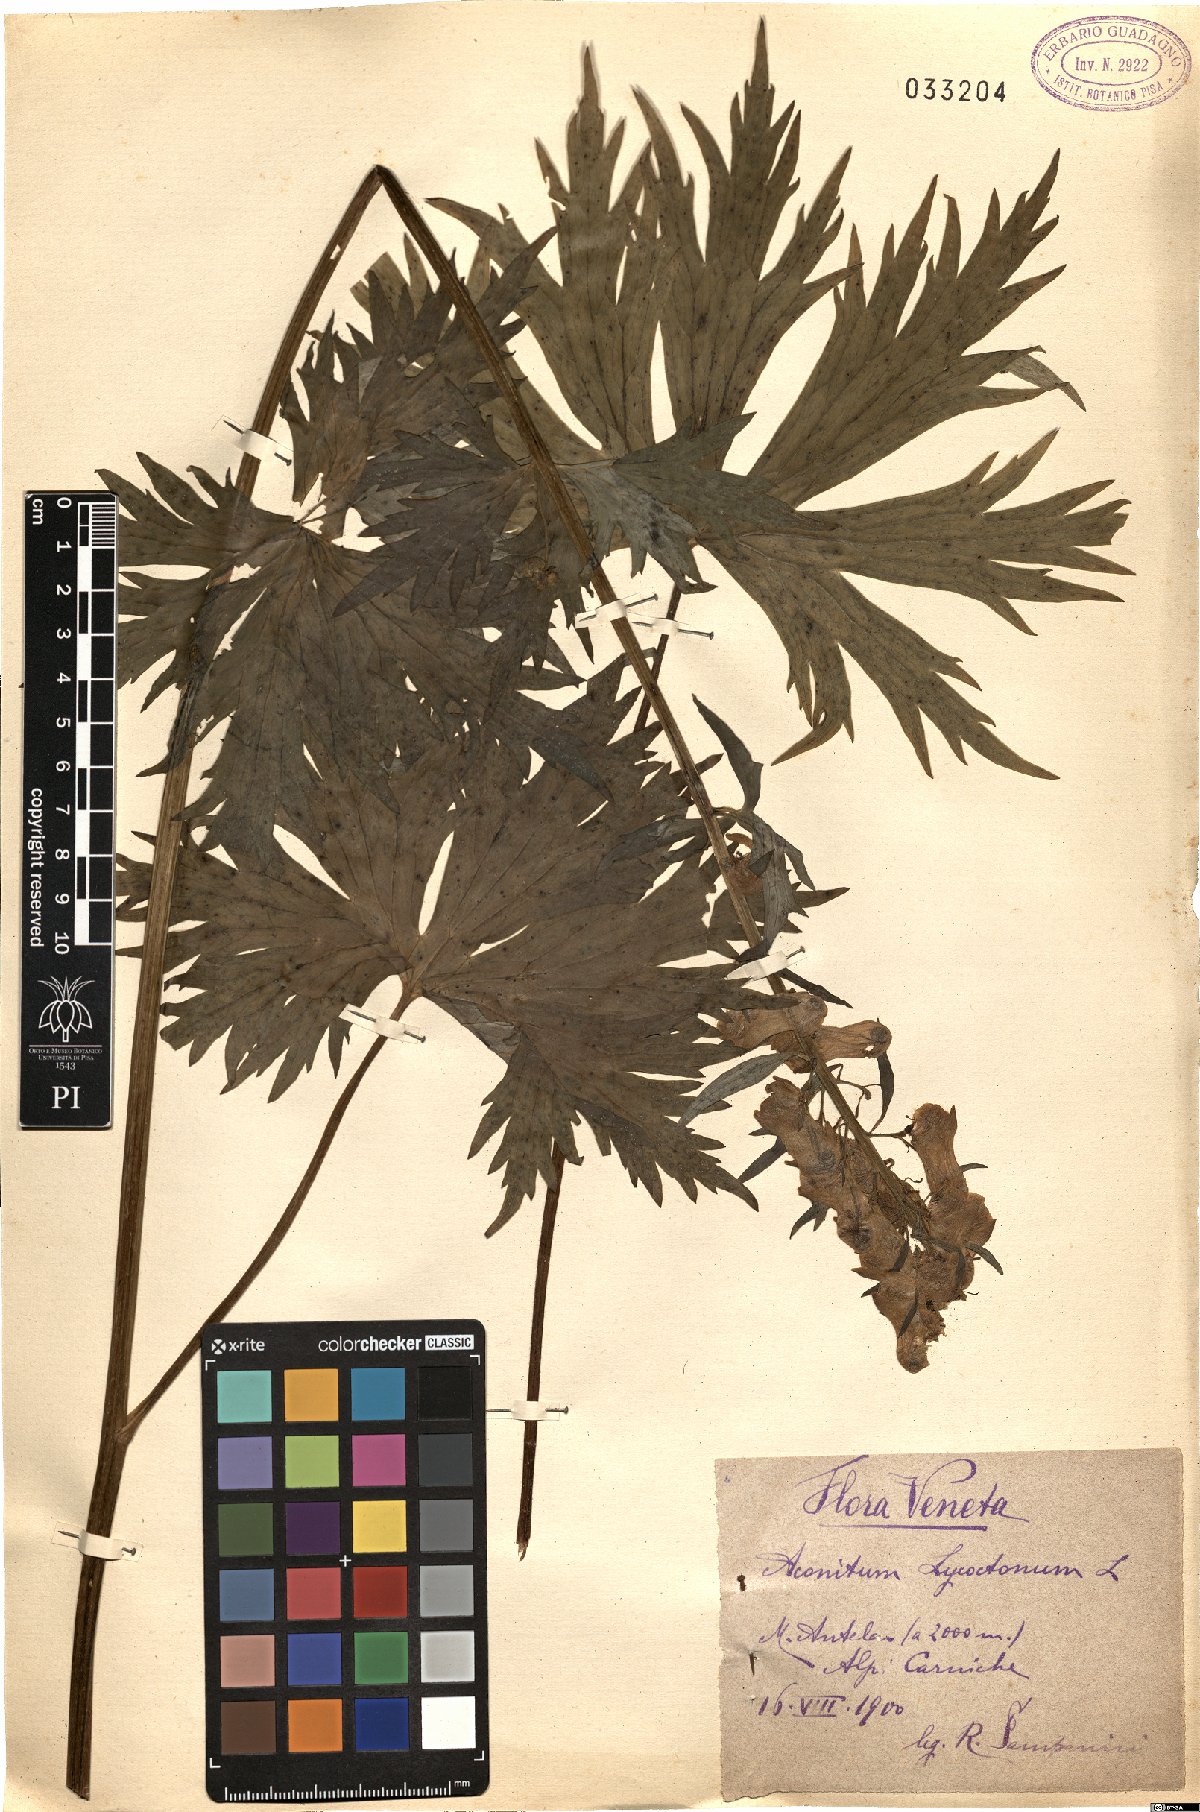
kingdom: Plantae
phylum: Tracheophyta
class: Magnoliopsida
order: Ranunculales
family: Ranunculaceae
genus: Aconitum
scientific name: Aconitum lycoctonum
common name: Wolf's-bane
